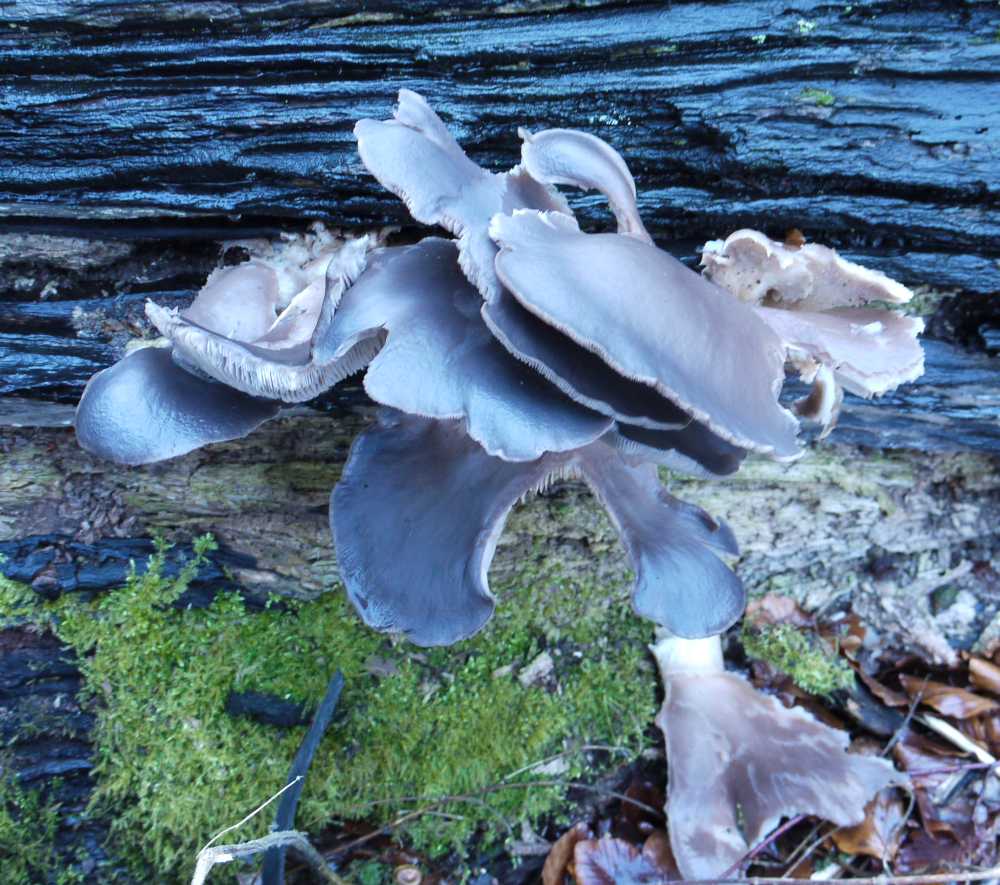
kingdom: Fungi
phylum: Basidiomycota
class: Agaricomycetes
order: Agaricales
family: Pleurotaceae
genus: Pleurotus
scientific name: Pleurotus ostreatus
